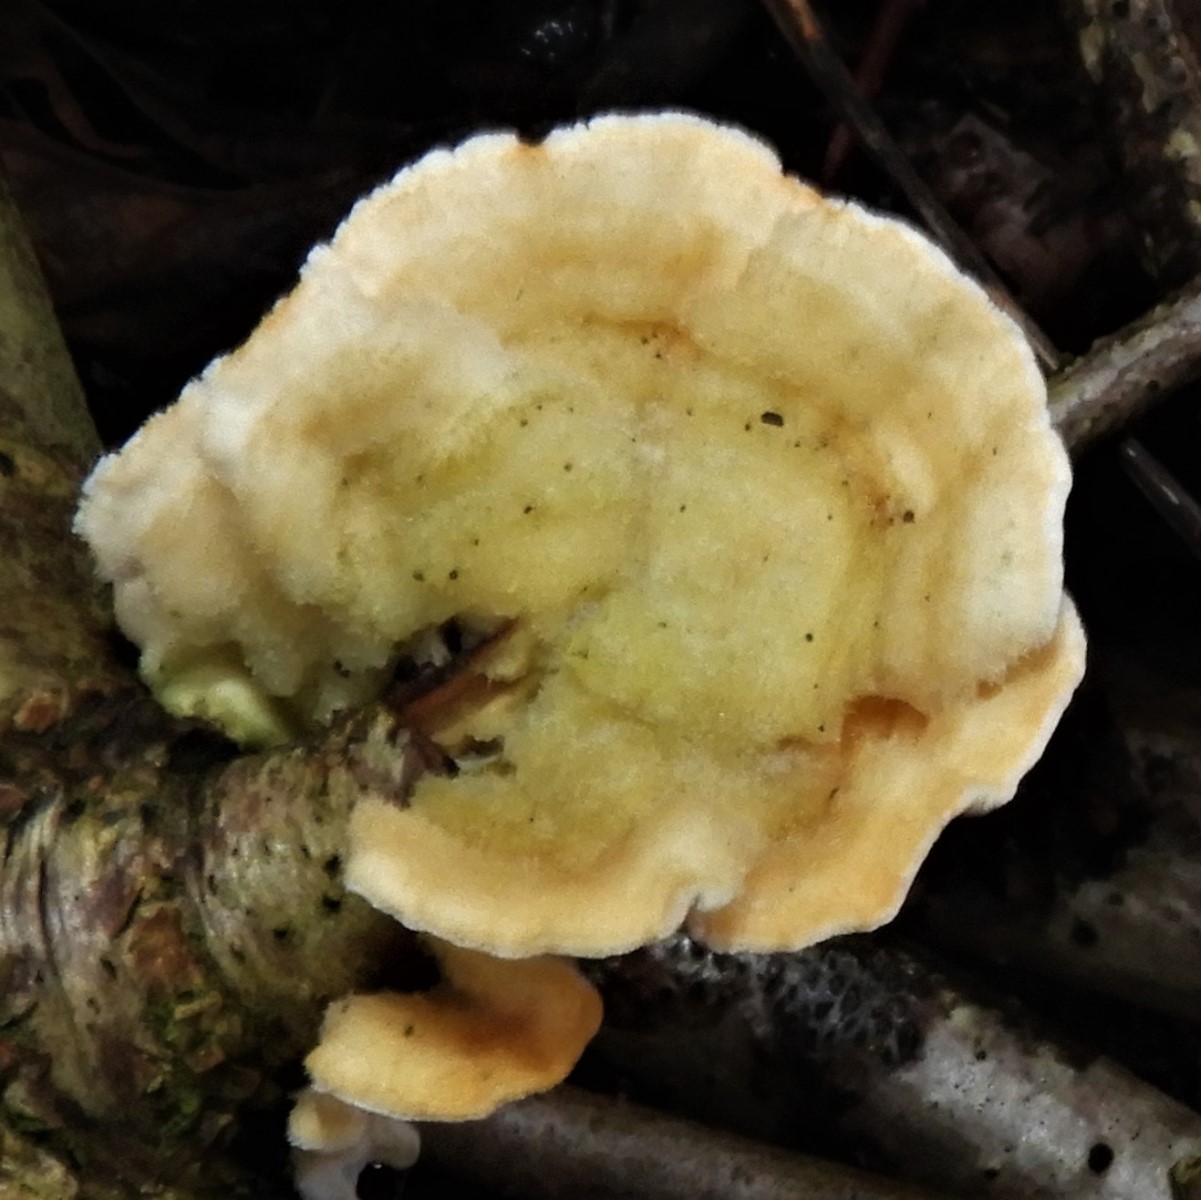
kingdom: Fungi
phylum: Basidiomycota
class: Agaricomycetes
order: Polyporales
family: Polyporaceae
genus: Trametes
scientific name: Trametes hirsuta
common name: håret læderporesvamp
